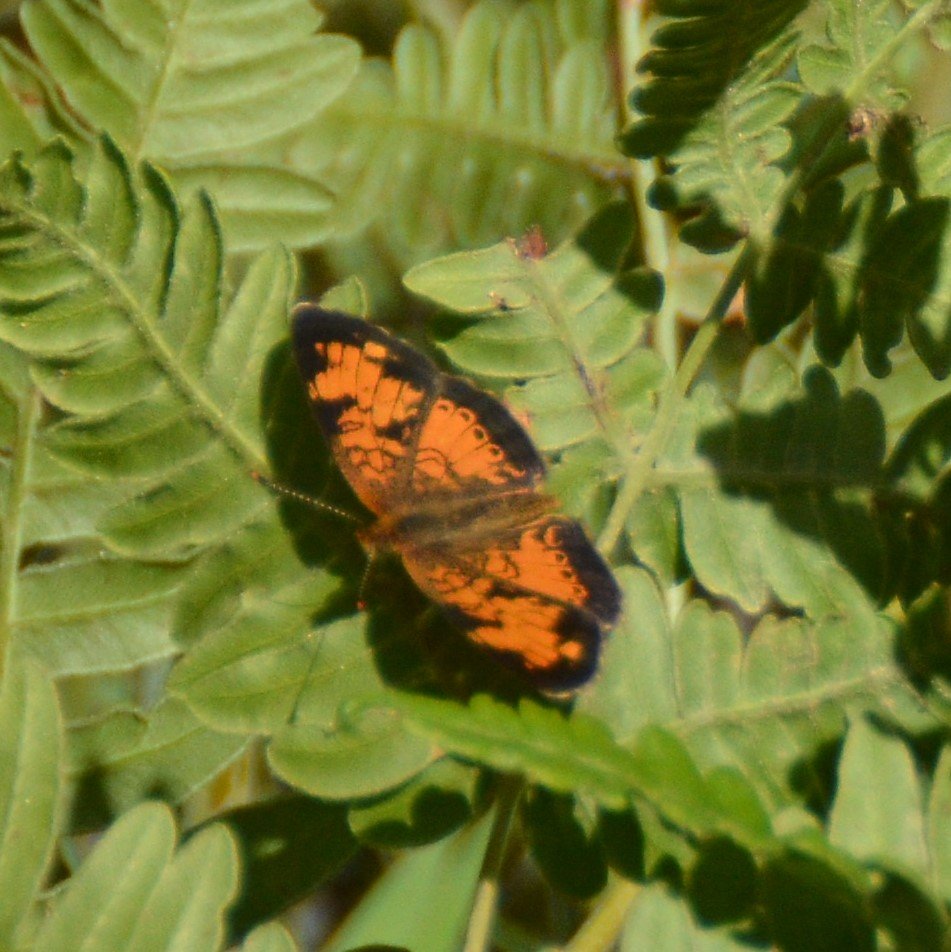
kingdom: Animalia
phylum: Arthropoda
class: Insecta
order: Lepidoptera
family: Nymphalidae
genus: Phyciodes
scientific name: Phyciodes tharos
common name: Northern Crescent
